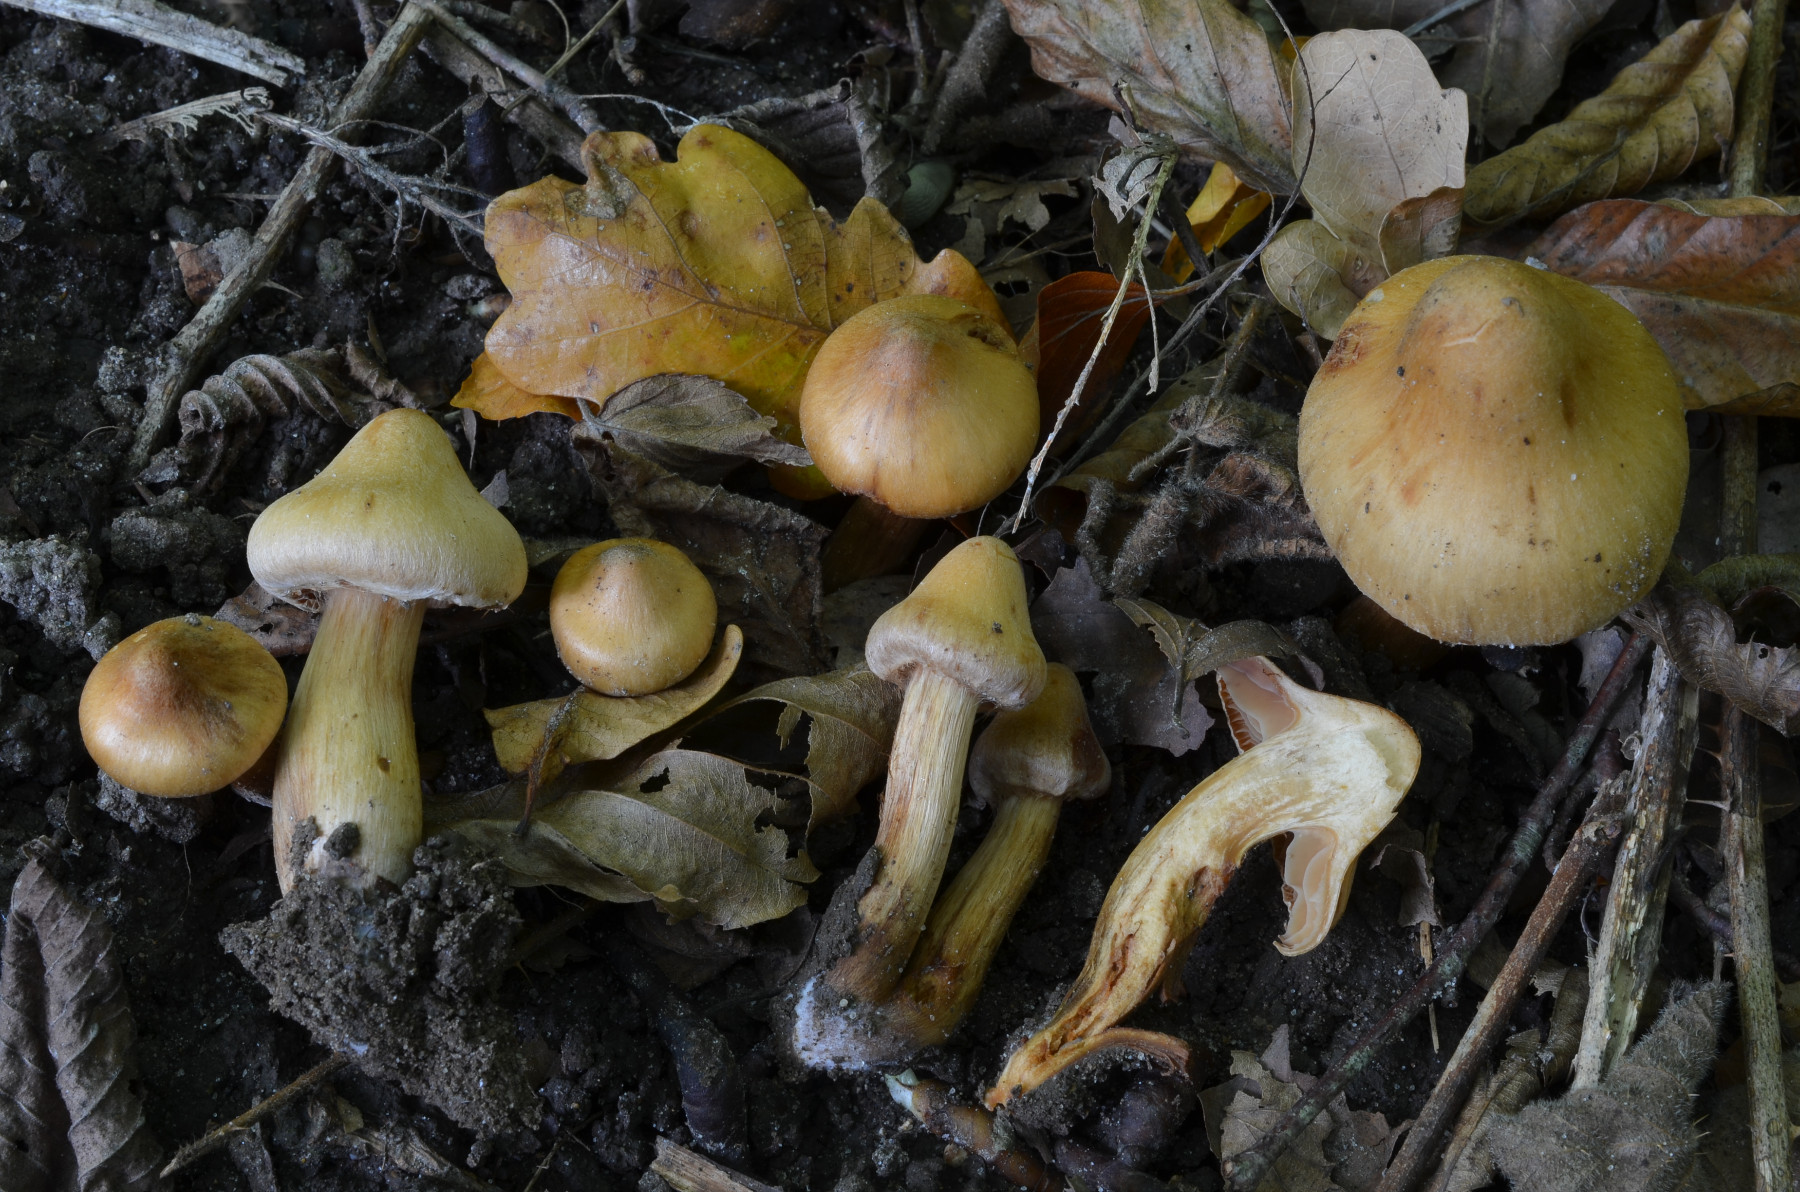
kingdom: Fungi
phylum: Basidiomycota
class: Agaricomycetes
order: Agaricales
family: Cortinariaceae
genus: Cortinarius
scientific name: Cortinarius roseonudipes
